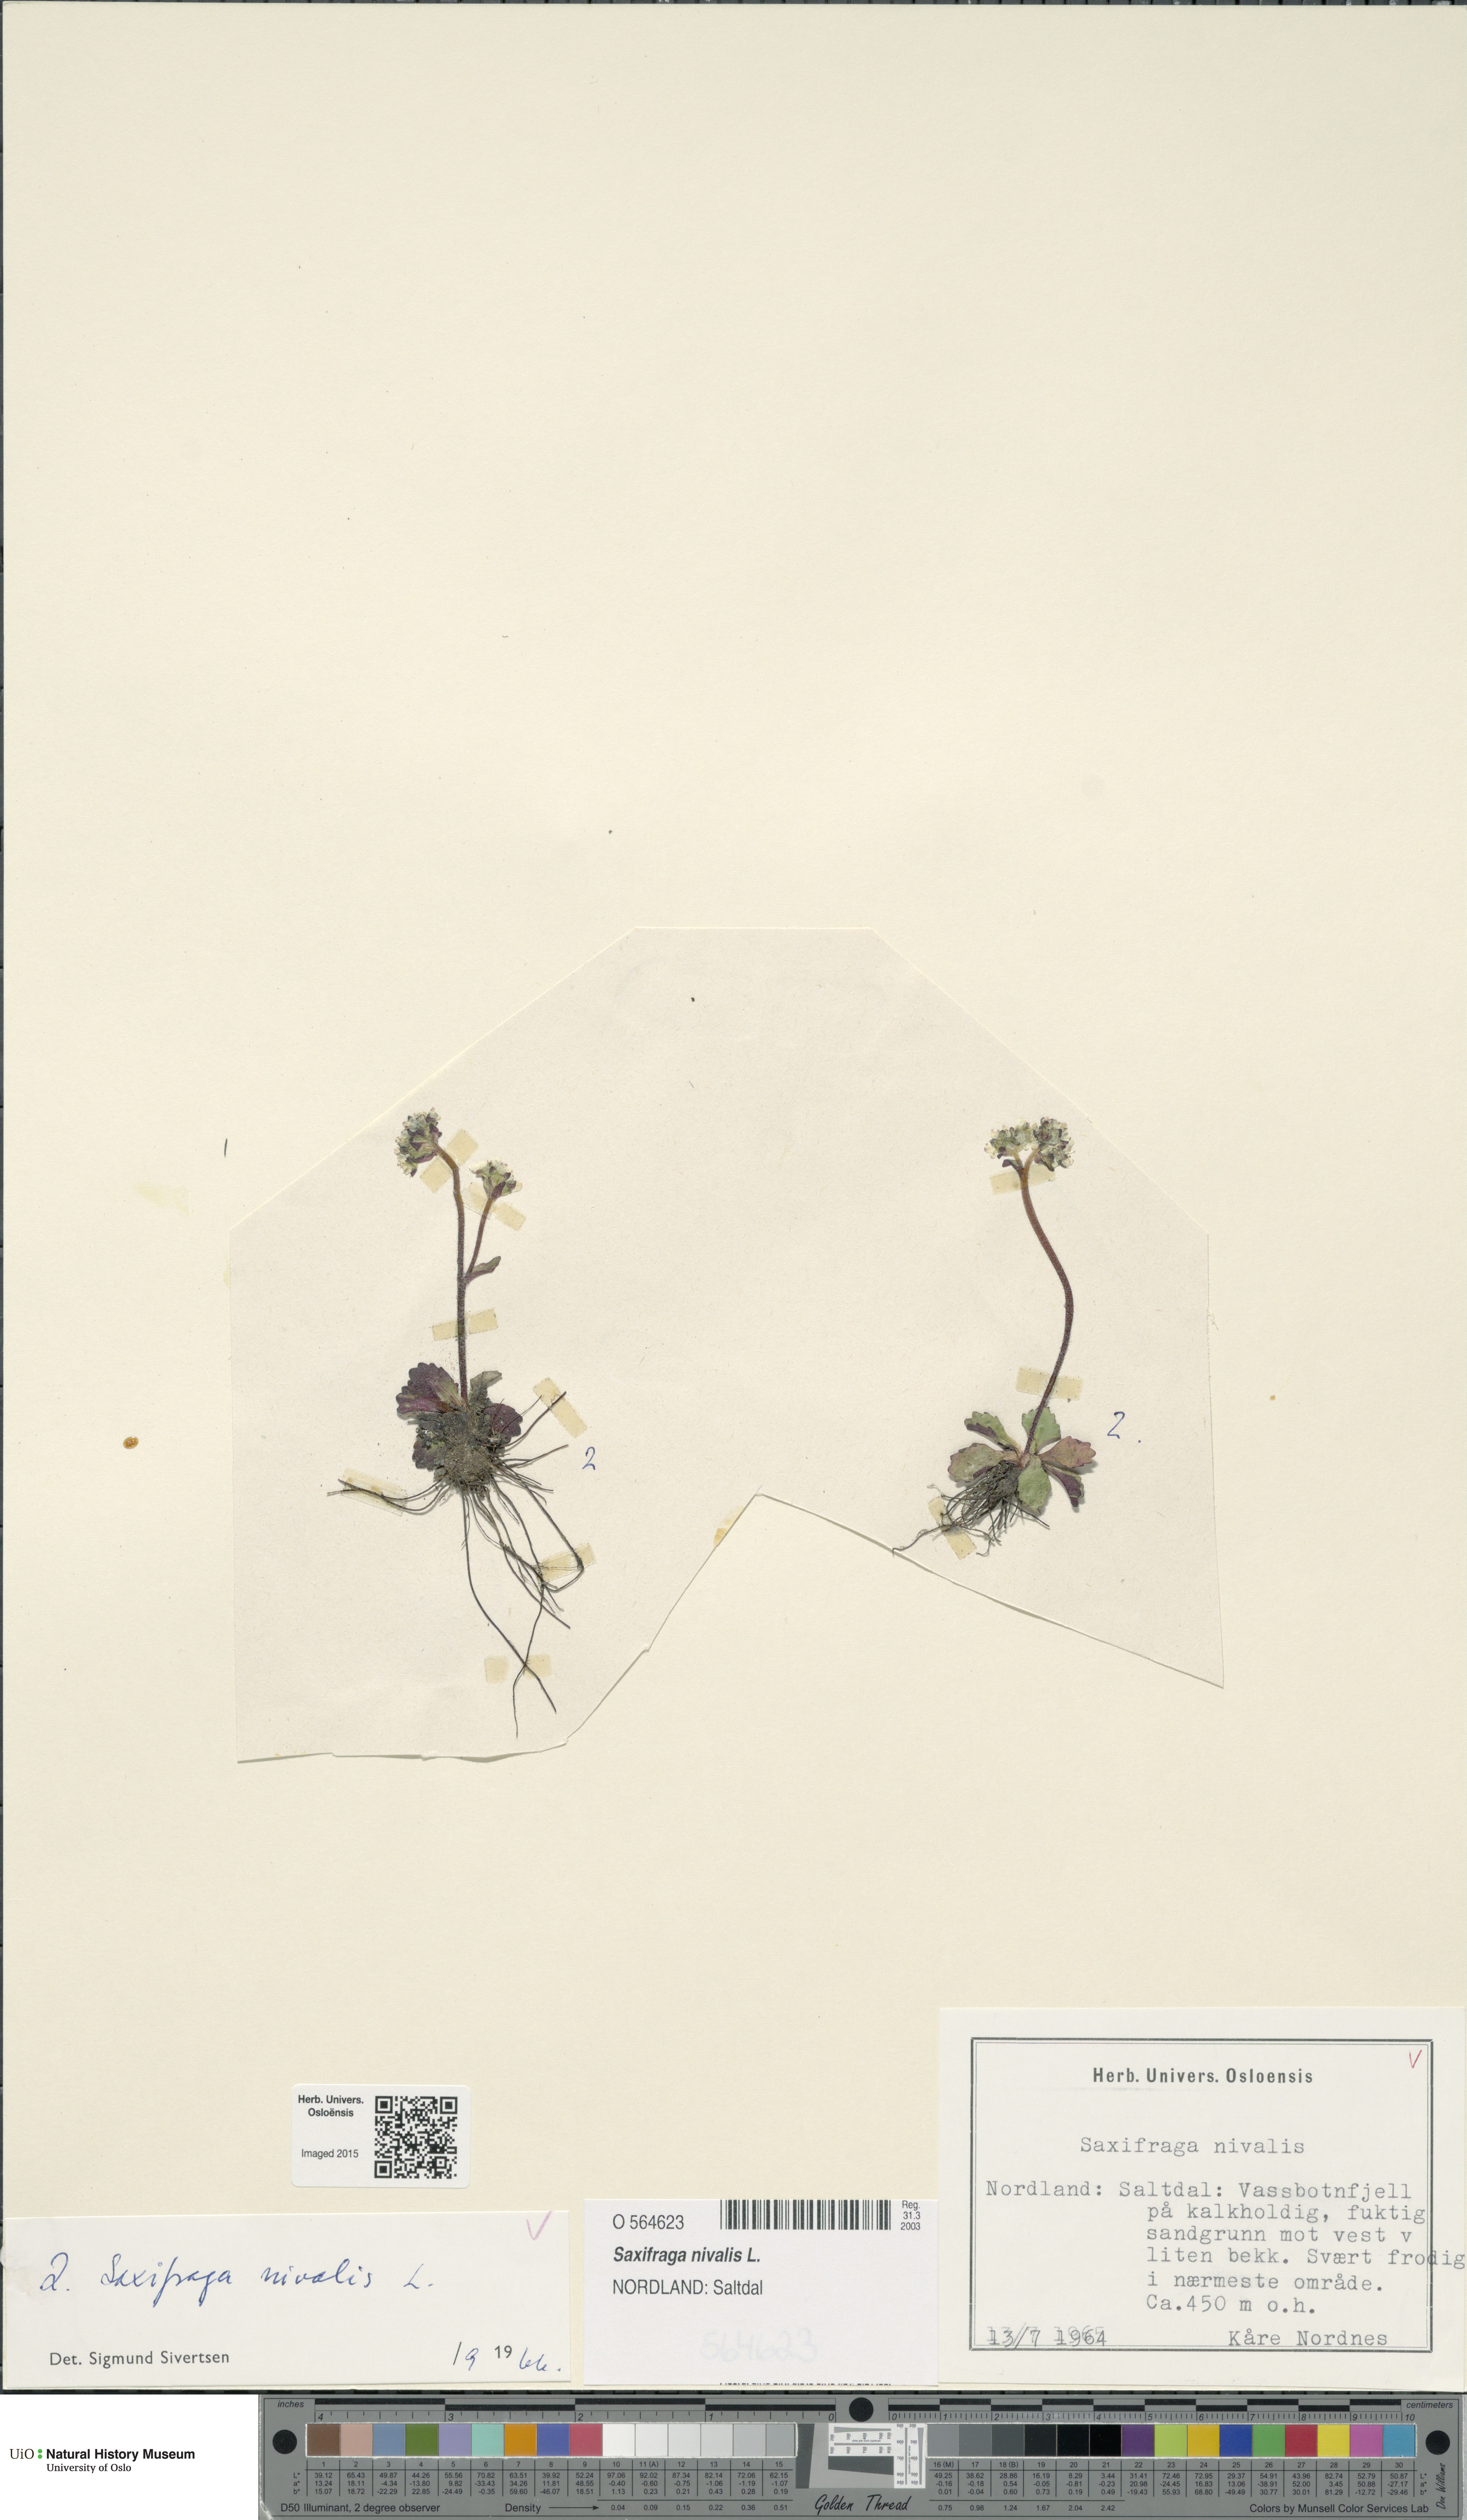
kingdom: Plantae
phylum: Tracheophyta
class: Magnoliopsida
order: Saxifragales
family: Saxifragaceae
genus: Micranthes
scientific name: Micranthes nivalis
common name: Alpine saxifrage
